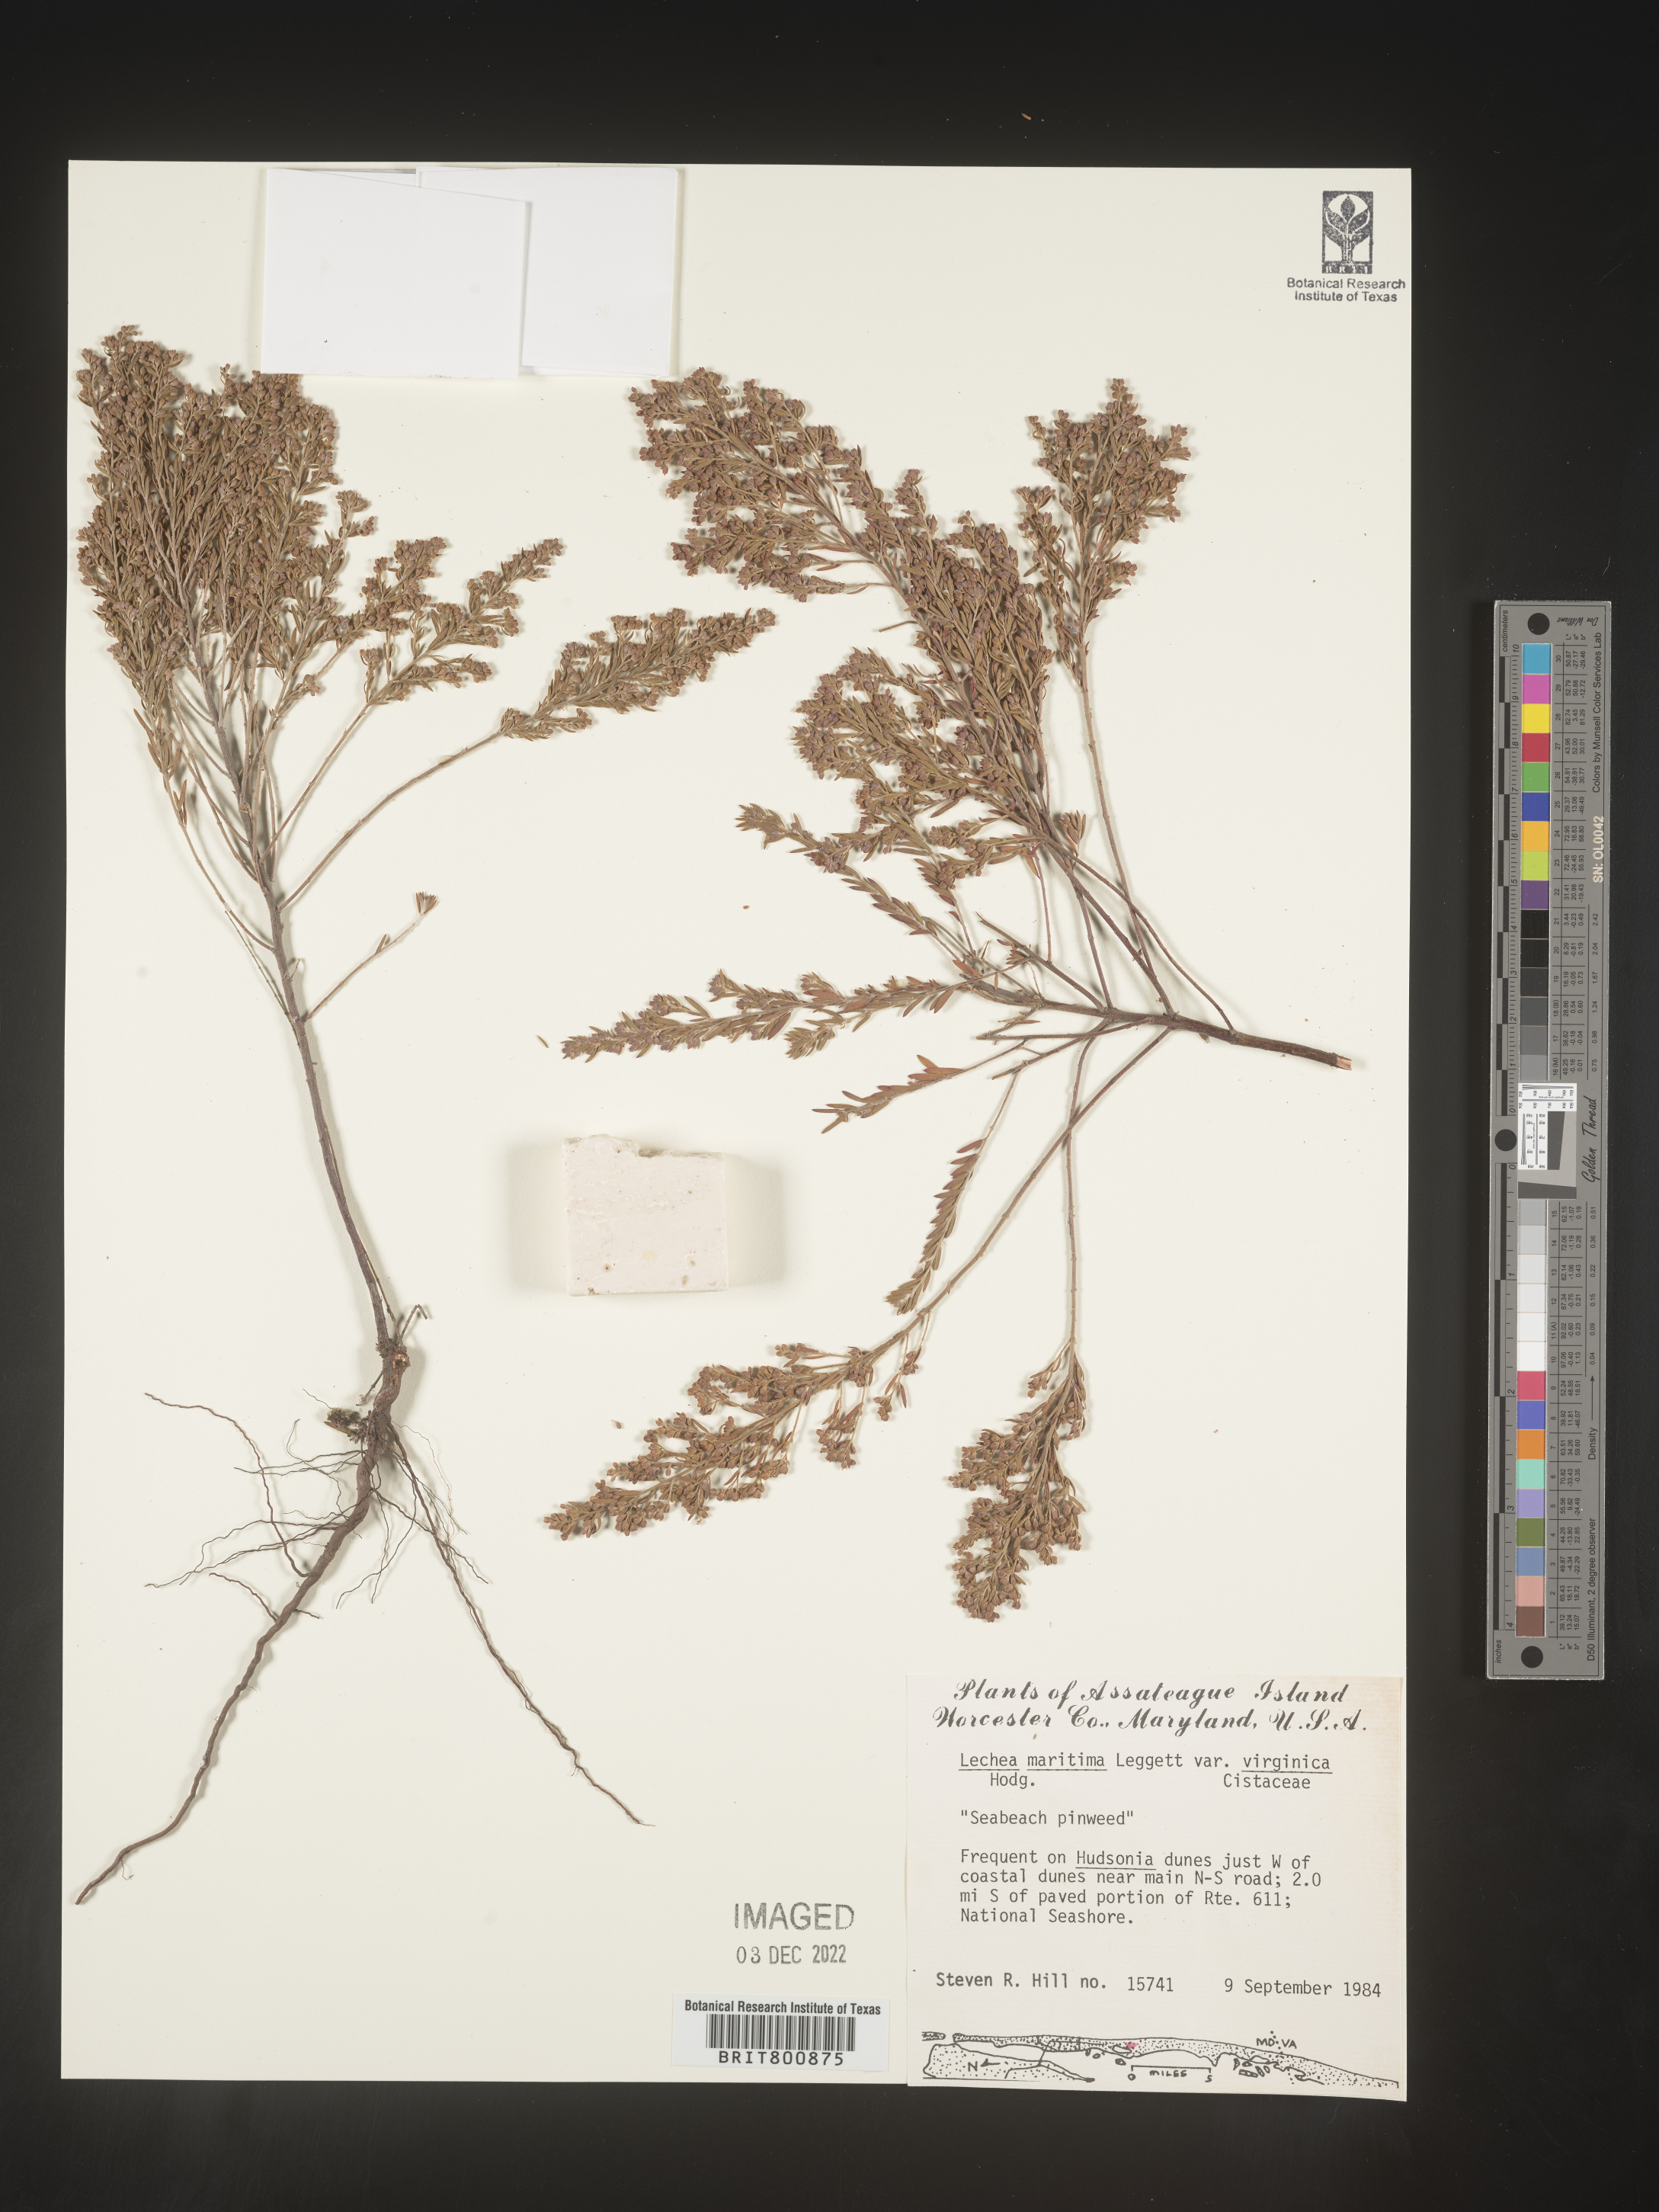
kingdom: Plantae
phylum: Tracheophyta
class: Magnoliopsida
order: Malvales
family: Cistaceae
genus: Lechea
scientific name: Lechea maritima
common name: Beach pinweed
